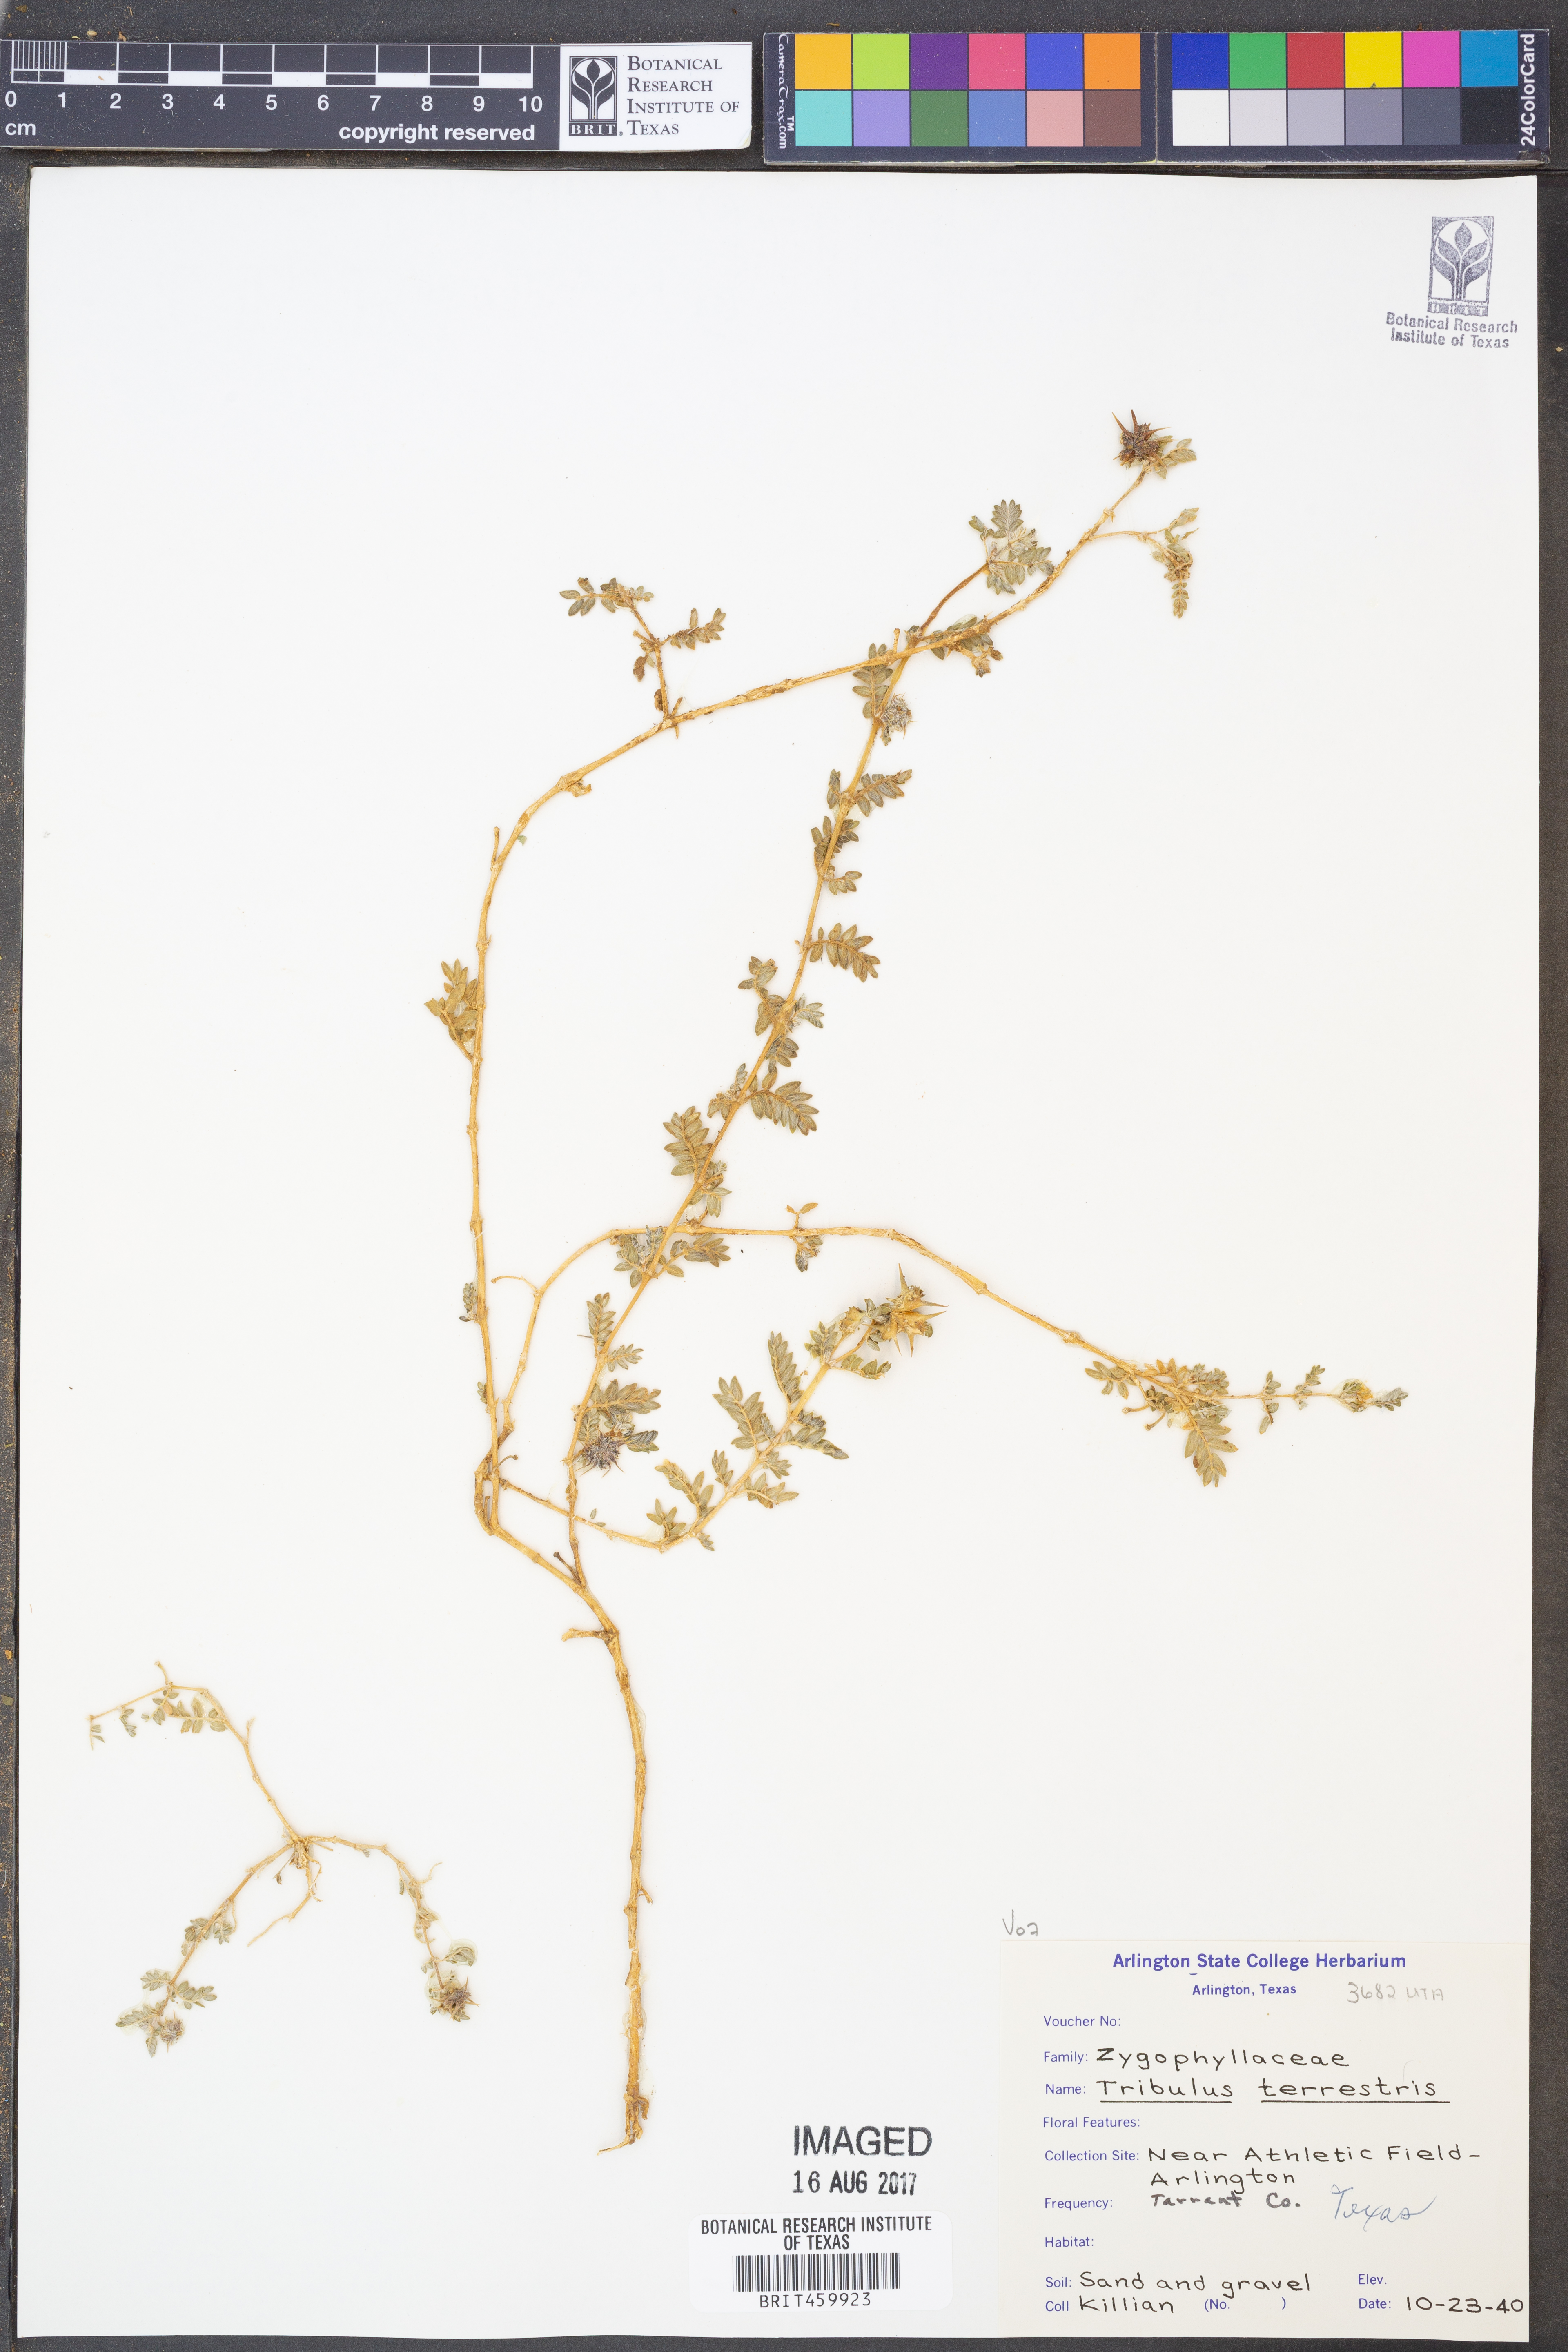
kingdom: Plantae
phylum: Tracheophyta
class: Magnoliopsida
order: Zygophyllales
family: Zygophyllaceae
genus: Tribulus
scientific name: Tribulus terrestris
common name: Puncturevine
